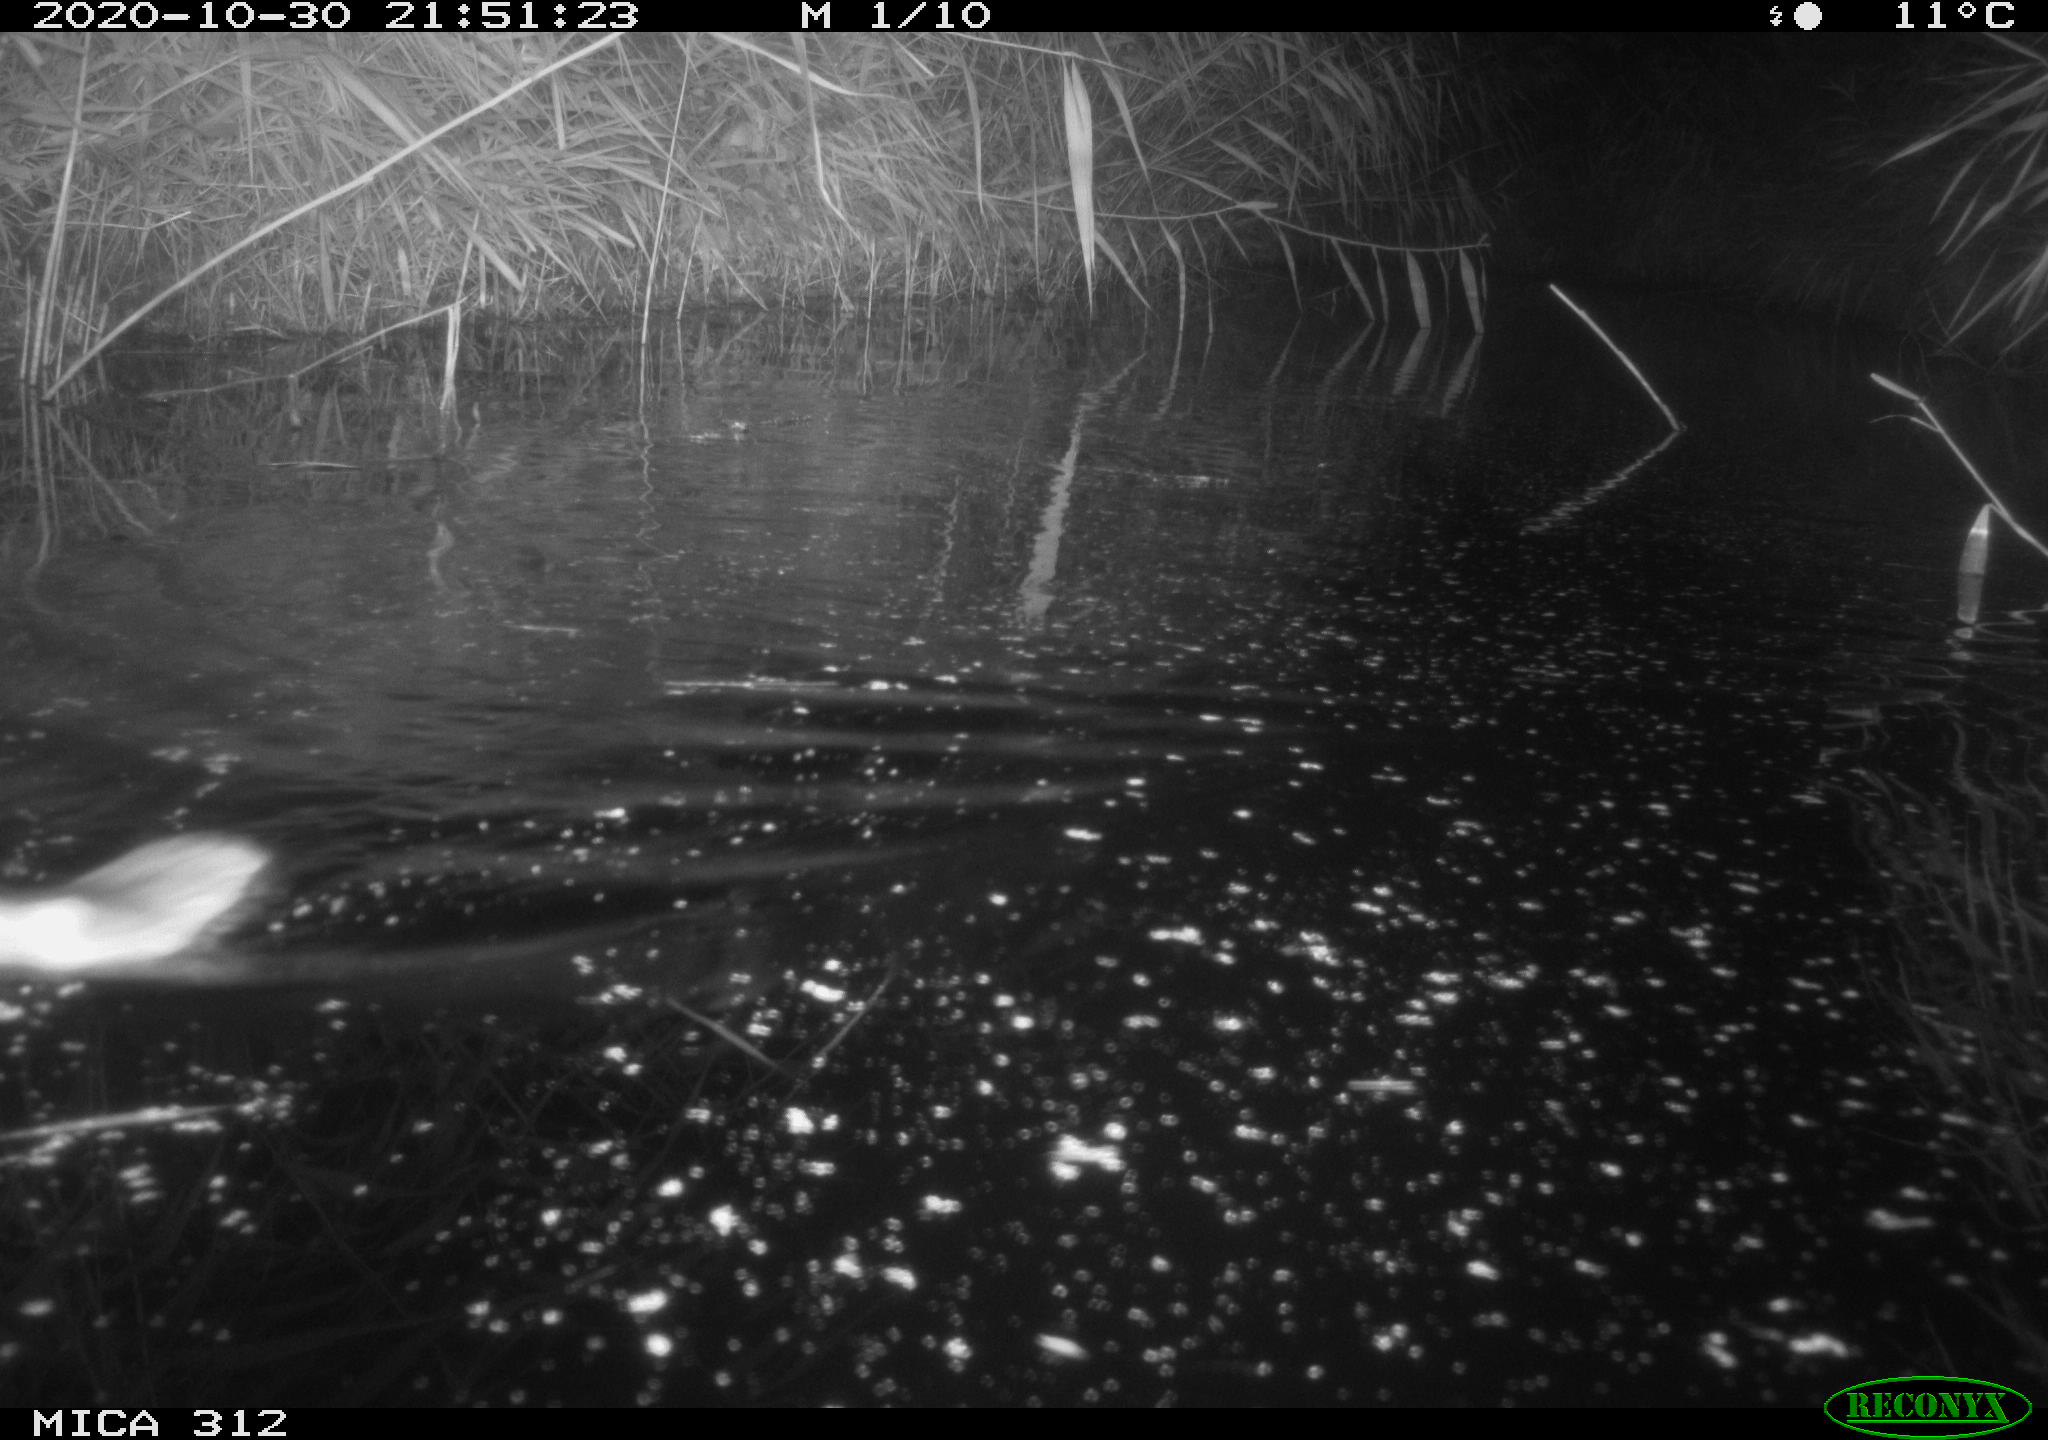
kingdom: Animalia
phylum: Chordata
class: Mammalia
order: Rodentia
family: Muridae
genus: Rattus
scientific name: Rattus norvegicus
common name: Brown rat
